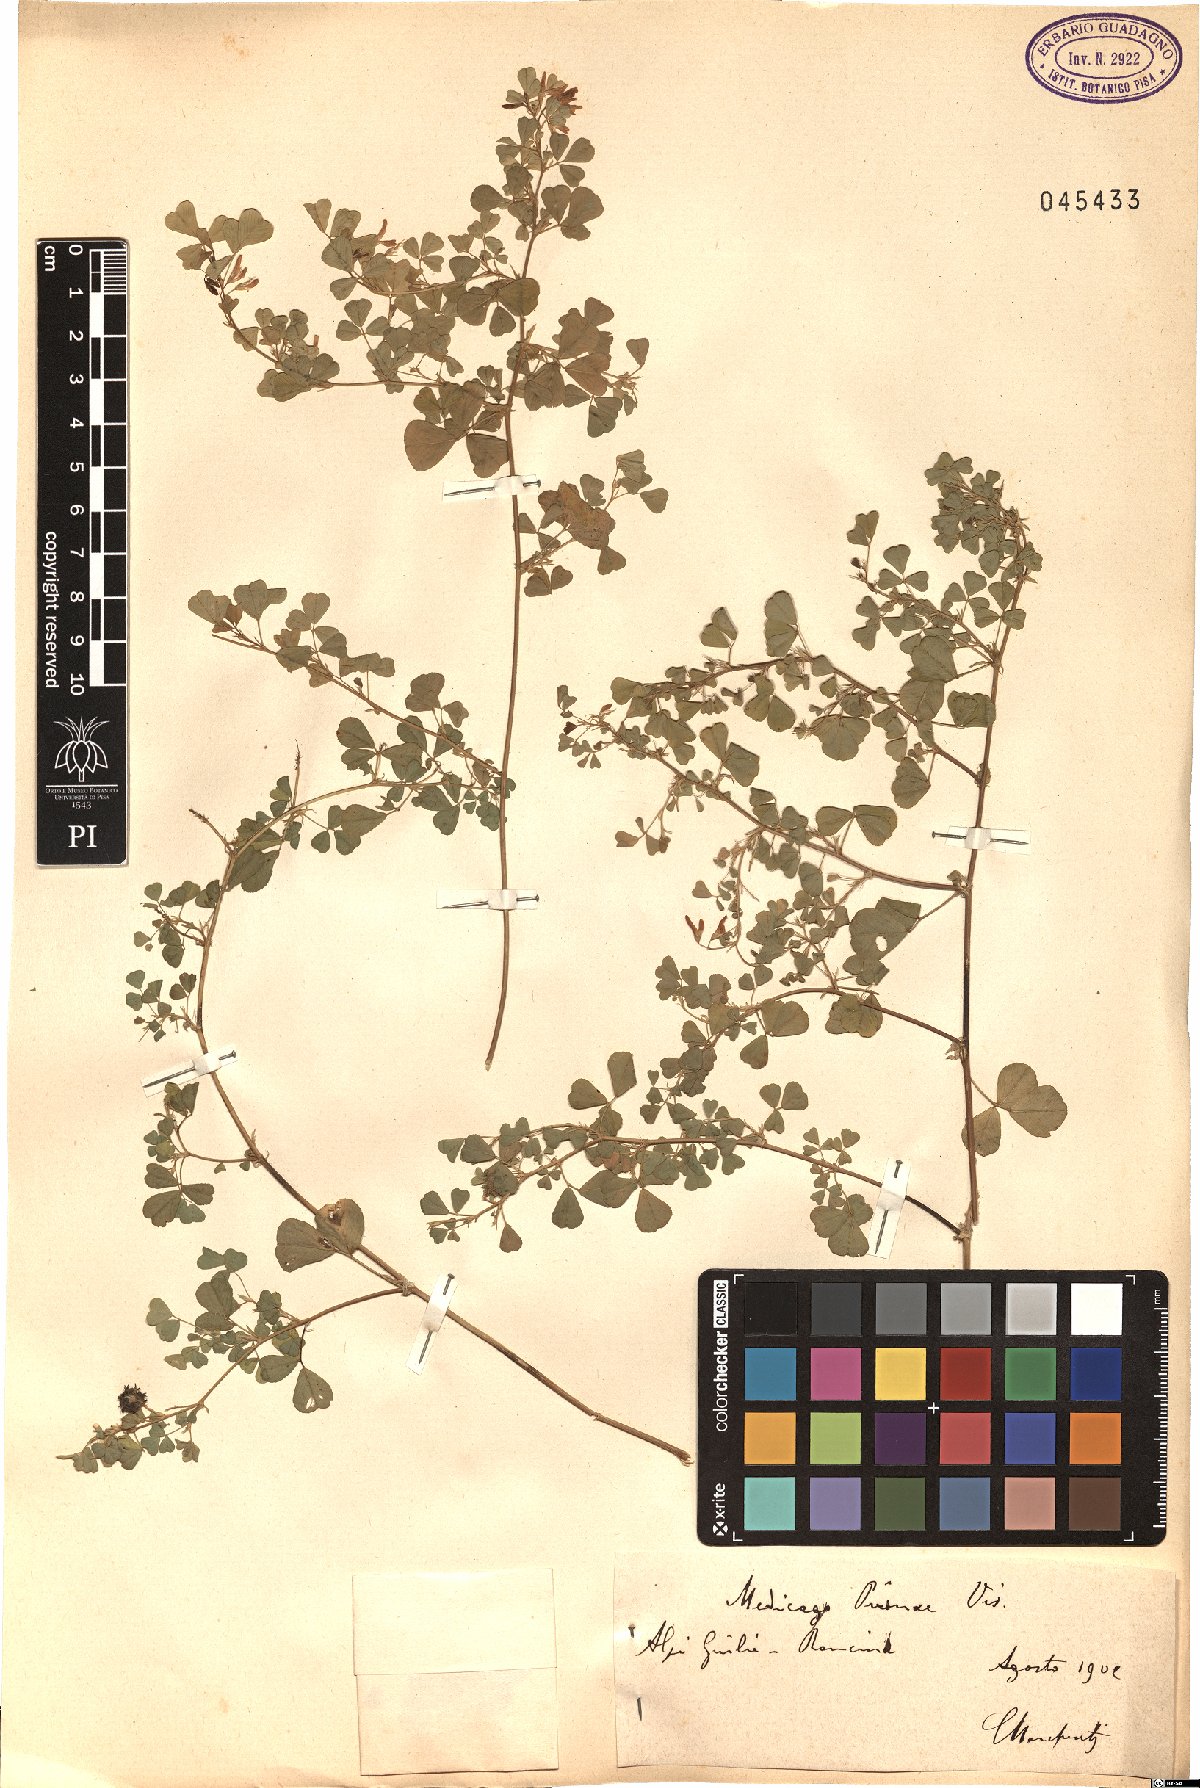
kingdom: Plantae
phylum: Tracheophyta
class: Magnoliopsida
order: Fabales
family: Fabaceae
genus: Medicago
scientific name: Medicago pironae
